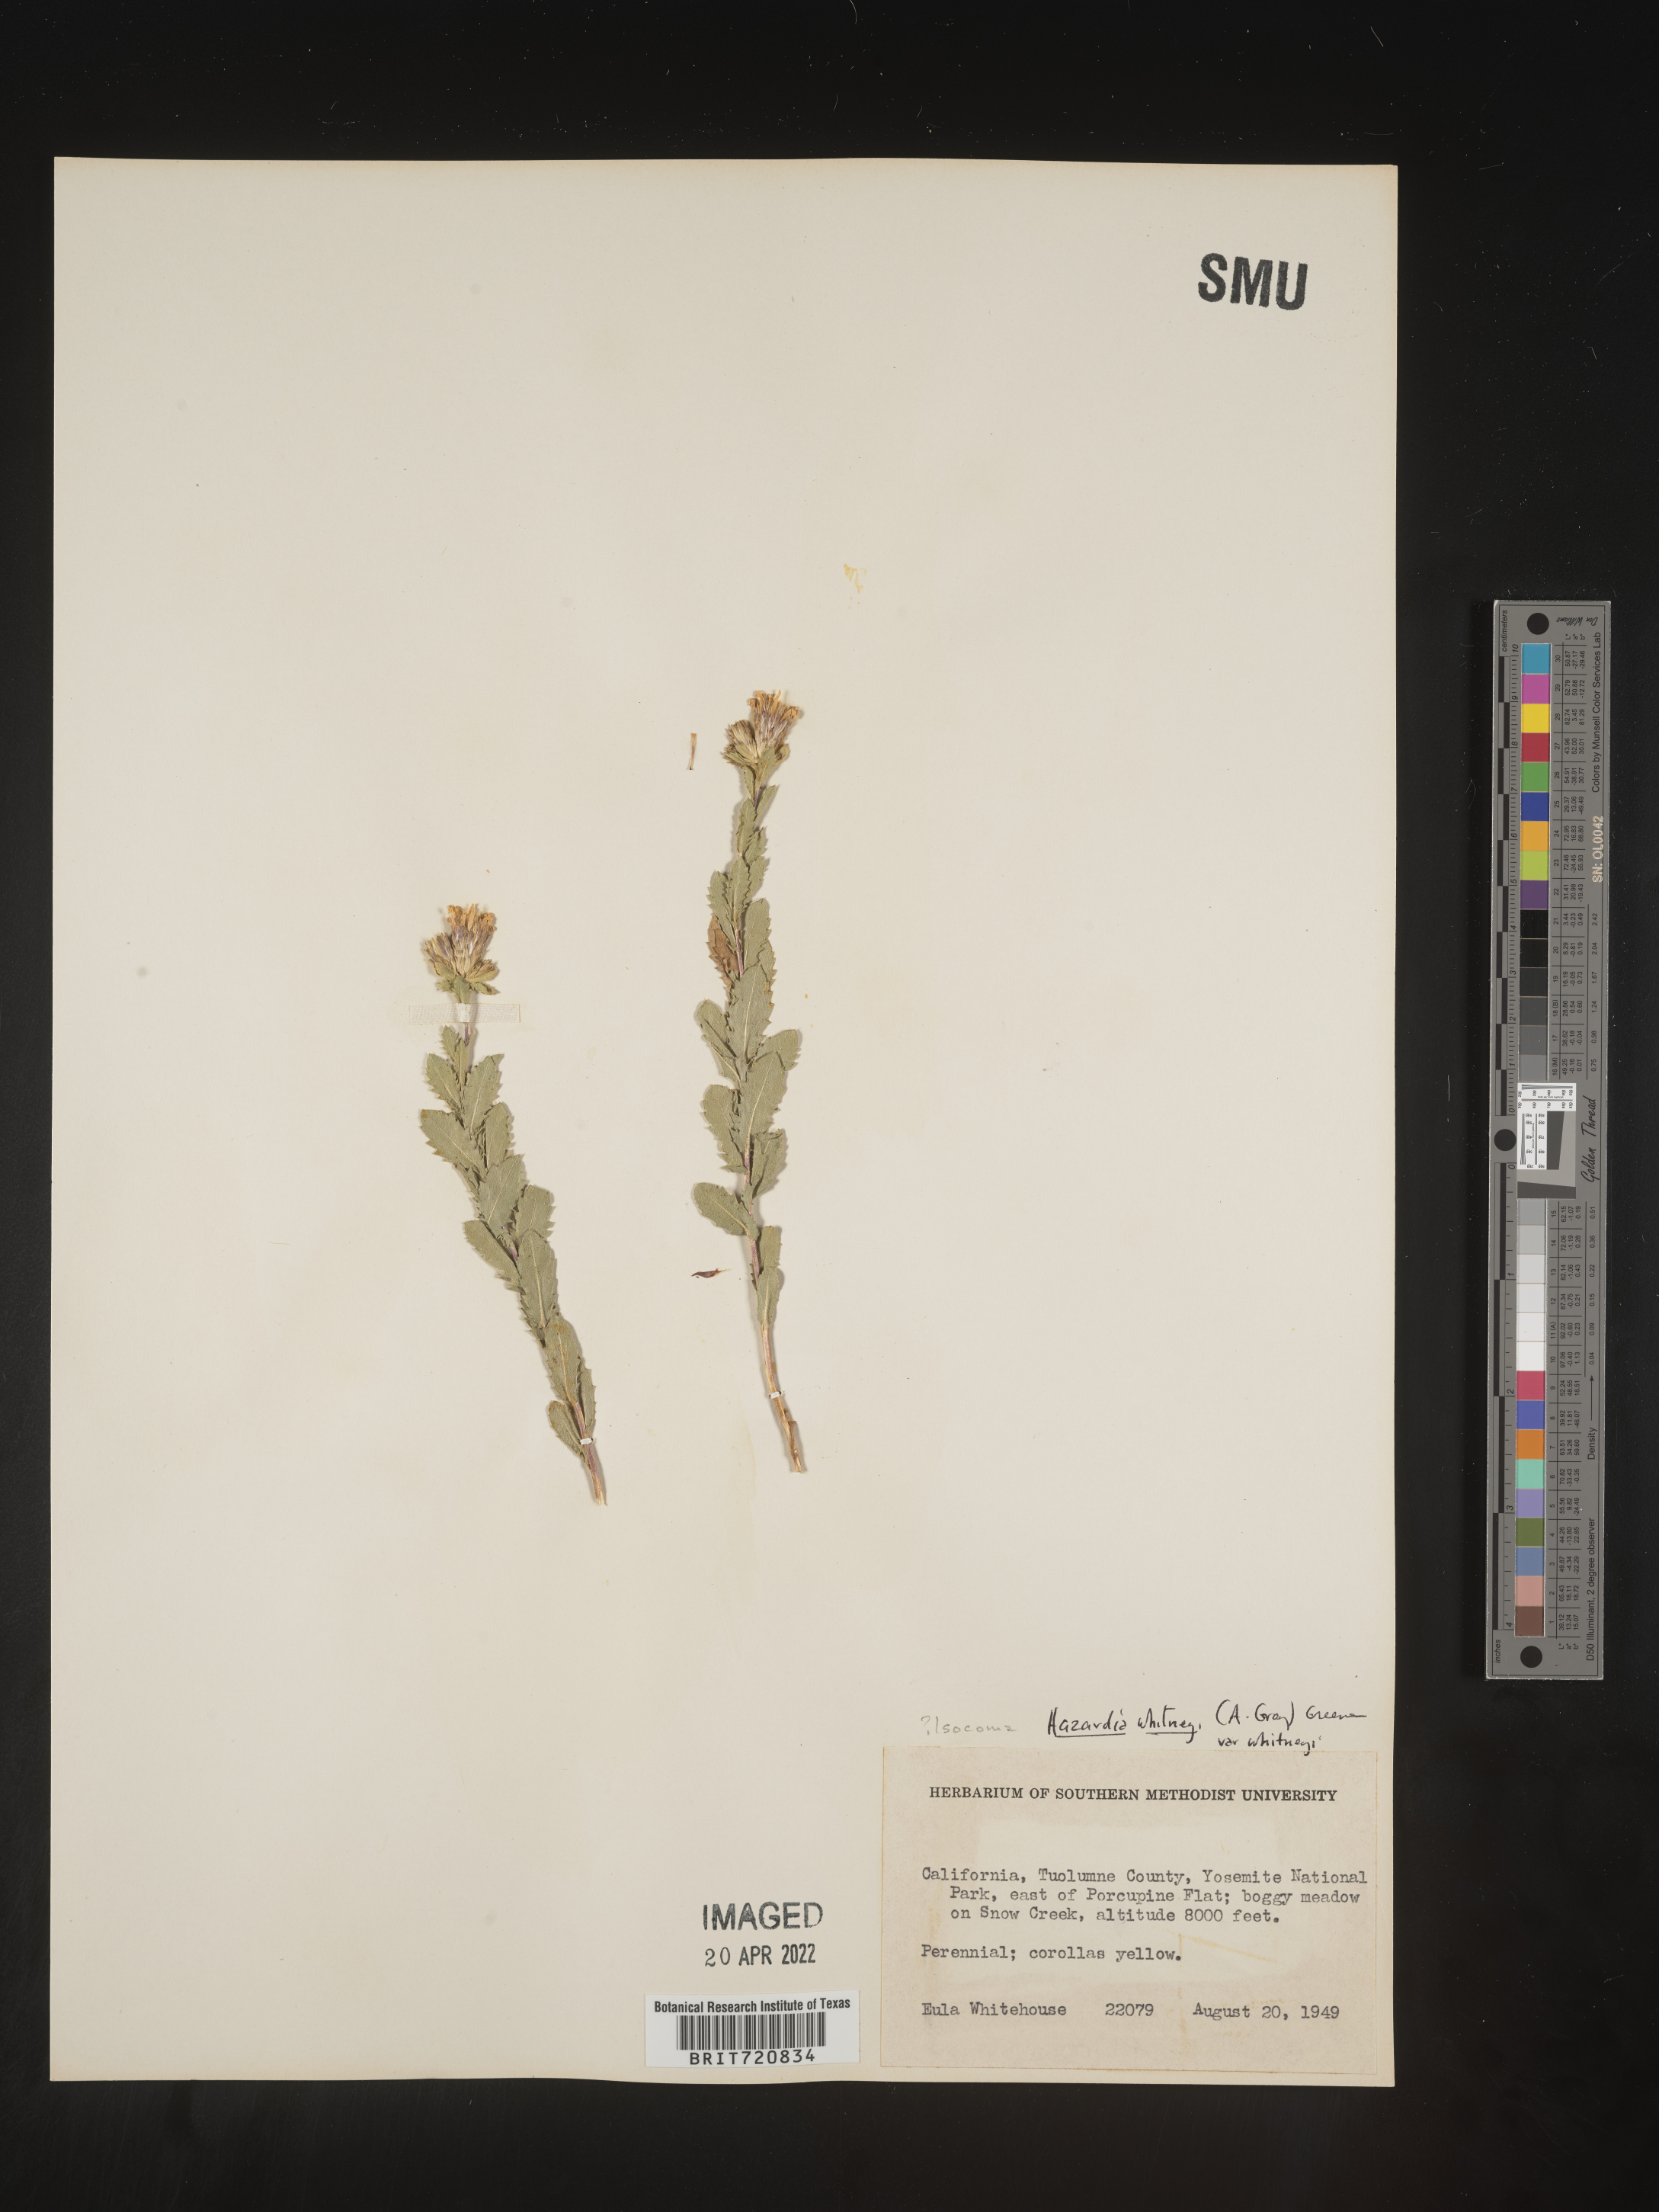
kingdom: Plantae
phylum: Tracheophyta
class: Magnoliopsida
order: Asterales
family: Asteraceae
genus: Hazardia
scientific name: Hazardia
